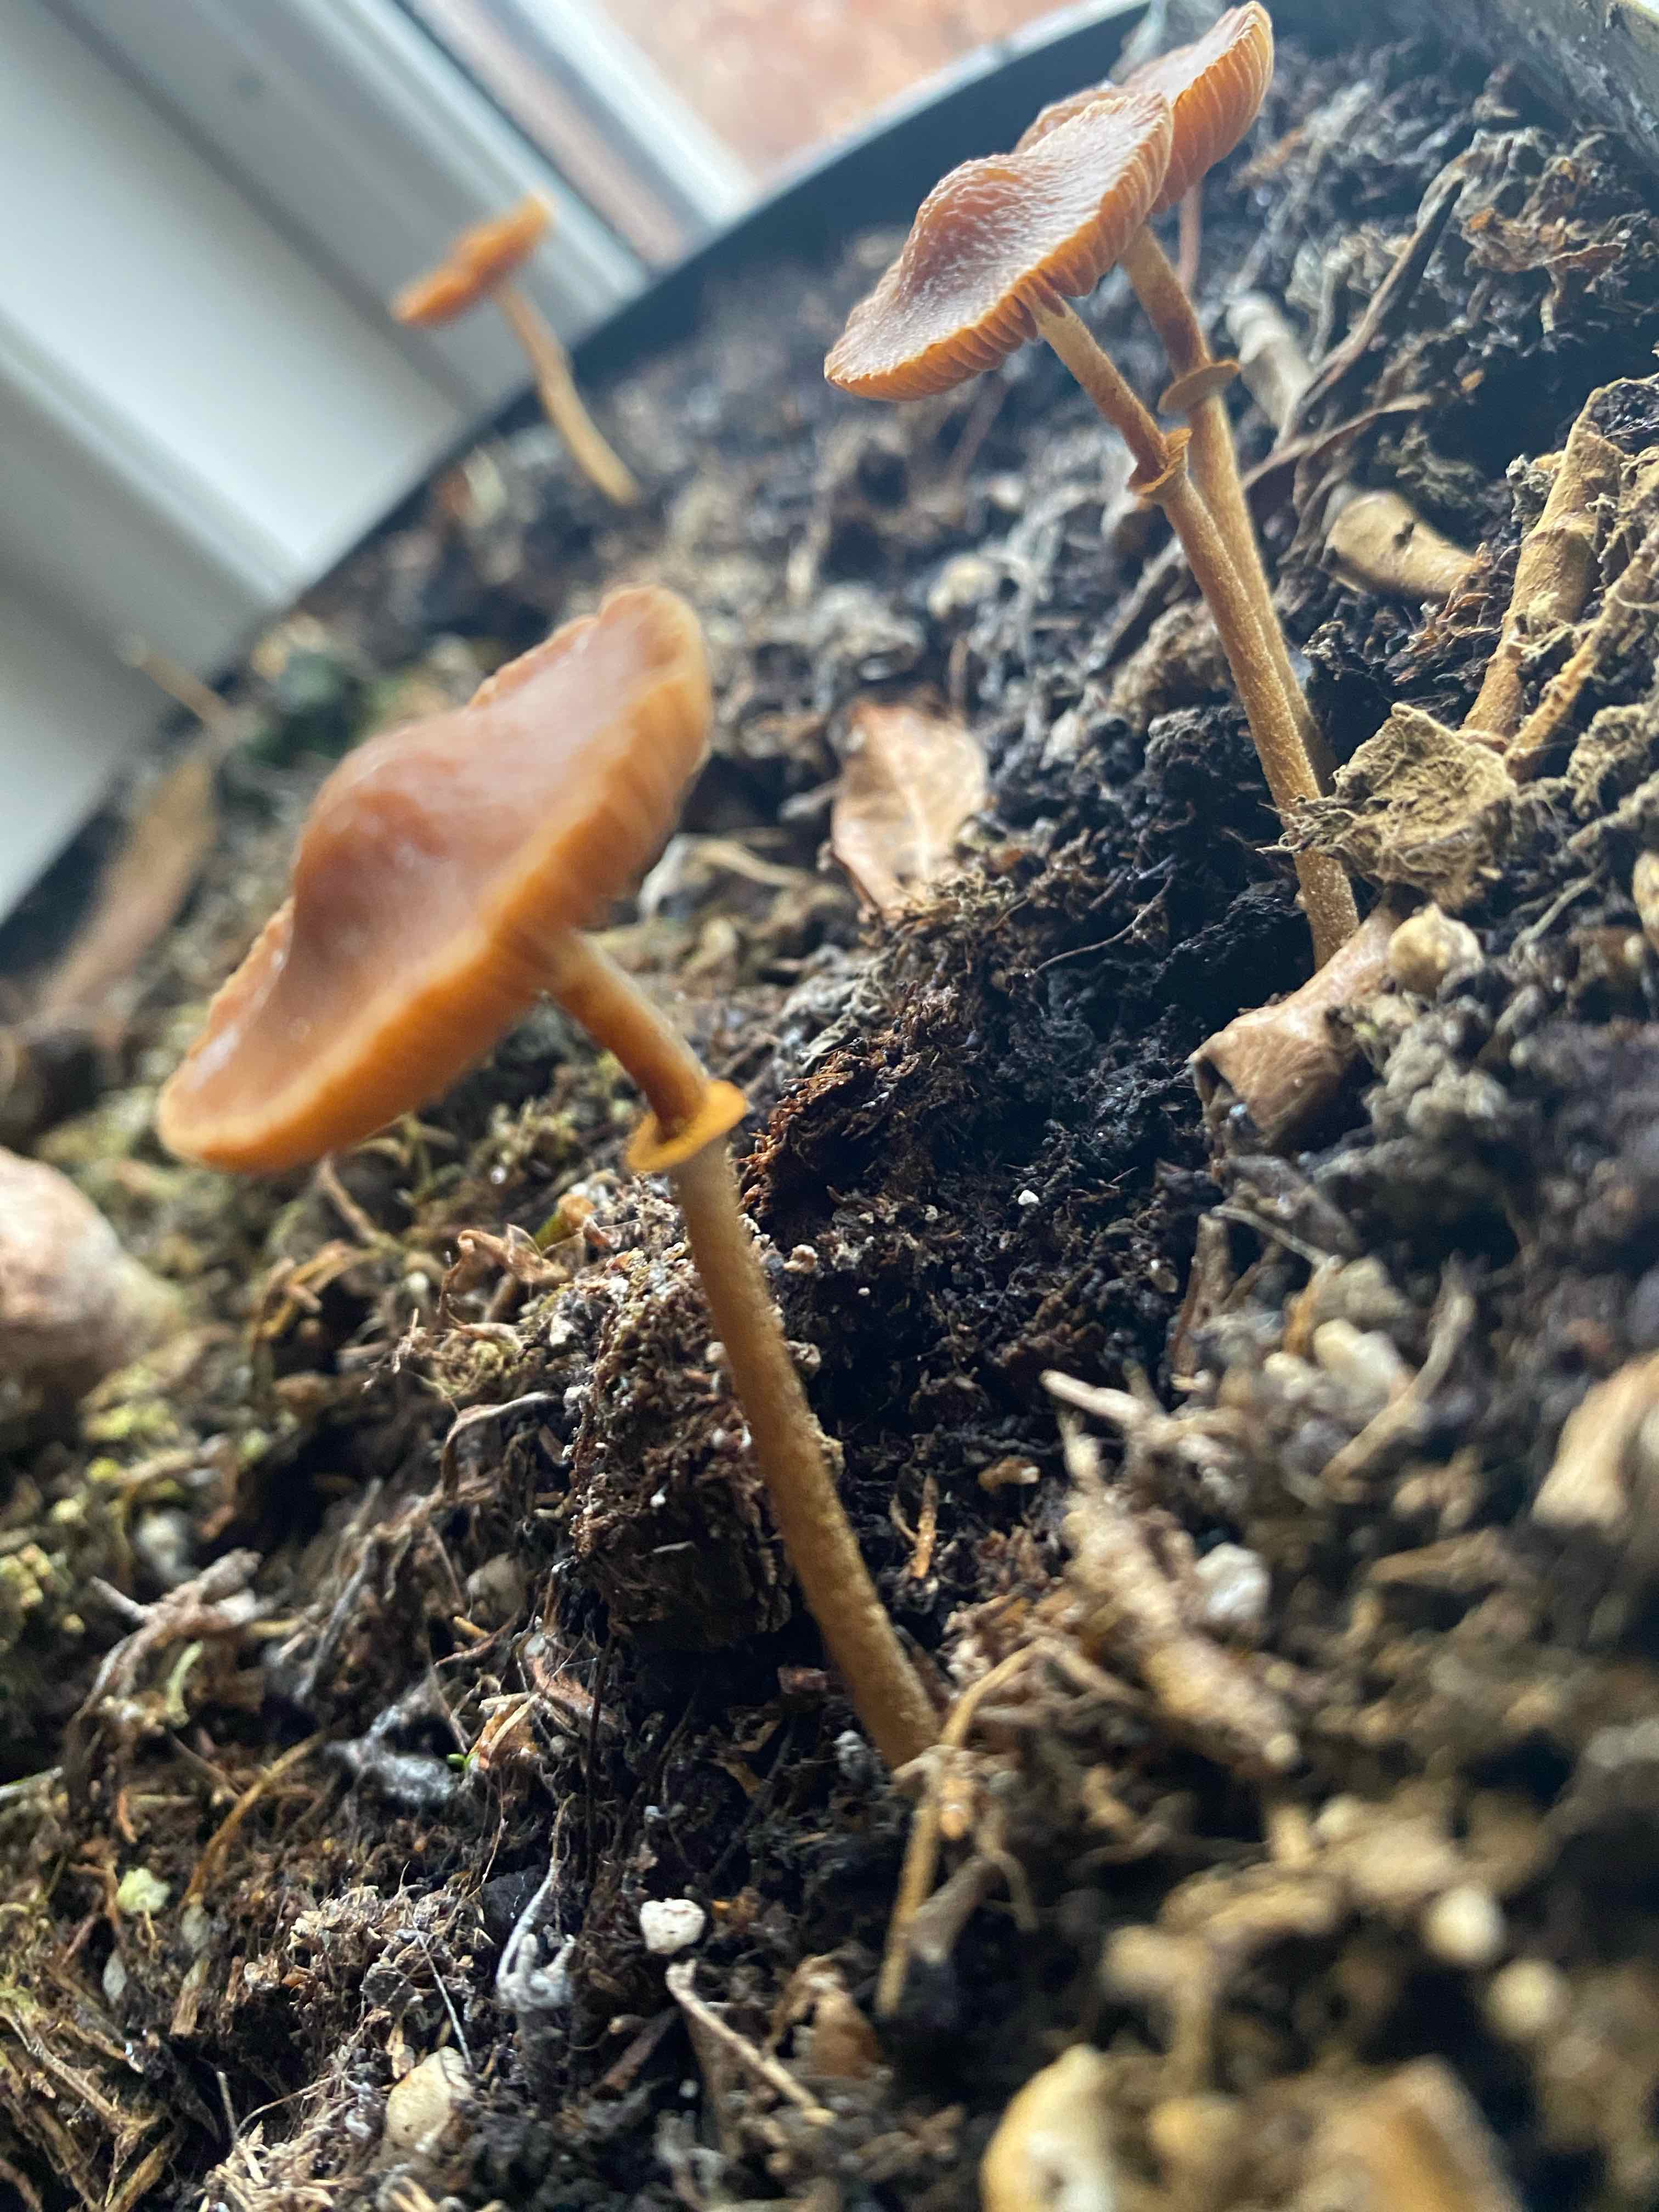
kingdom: Fungi
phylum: Basidiomycota
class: Agaricomycetes
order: Agaricales
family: Bolbitiaceae
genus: Pholiotina
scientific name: Pholiotina
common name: dansehat
